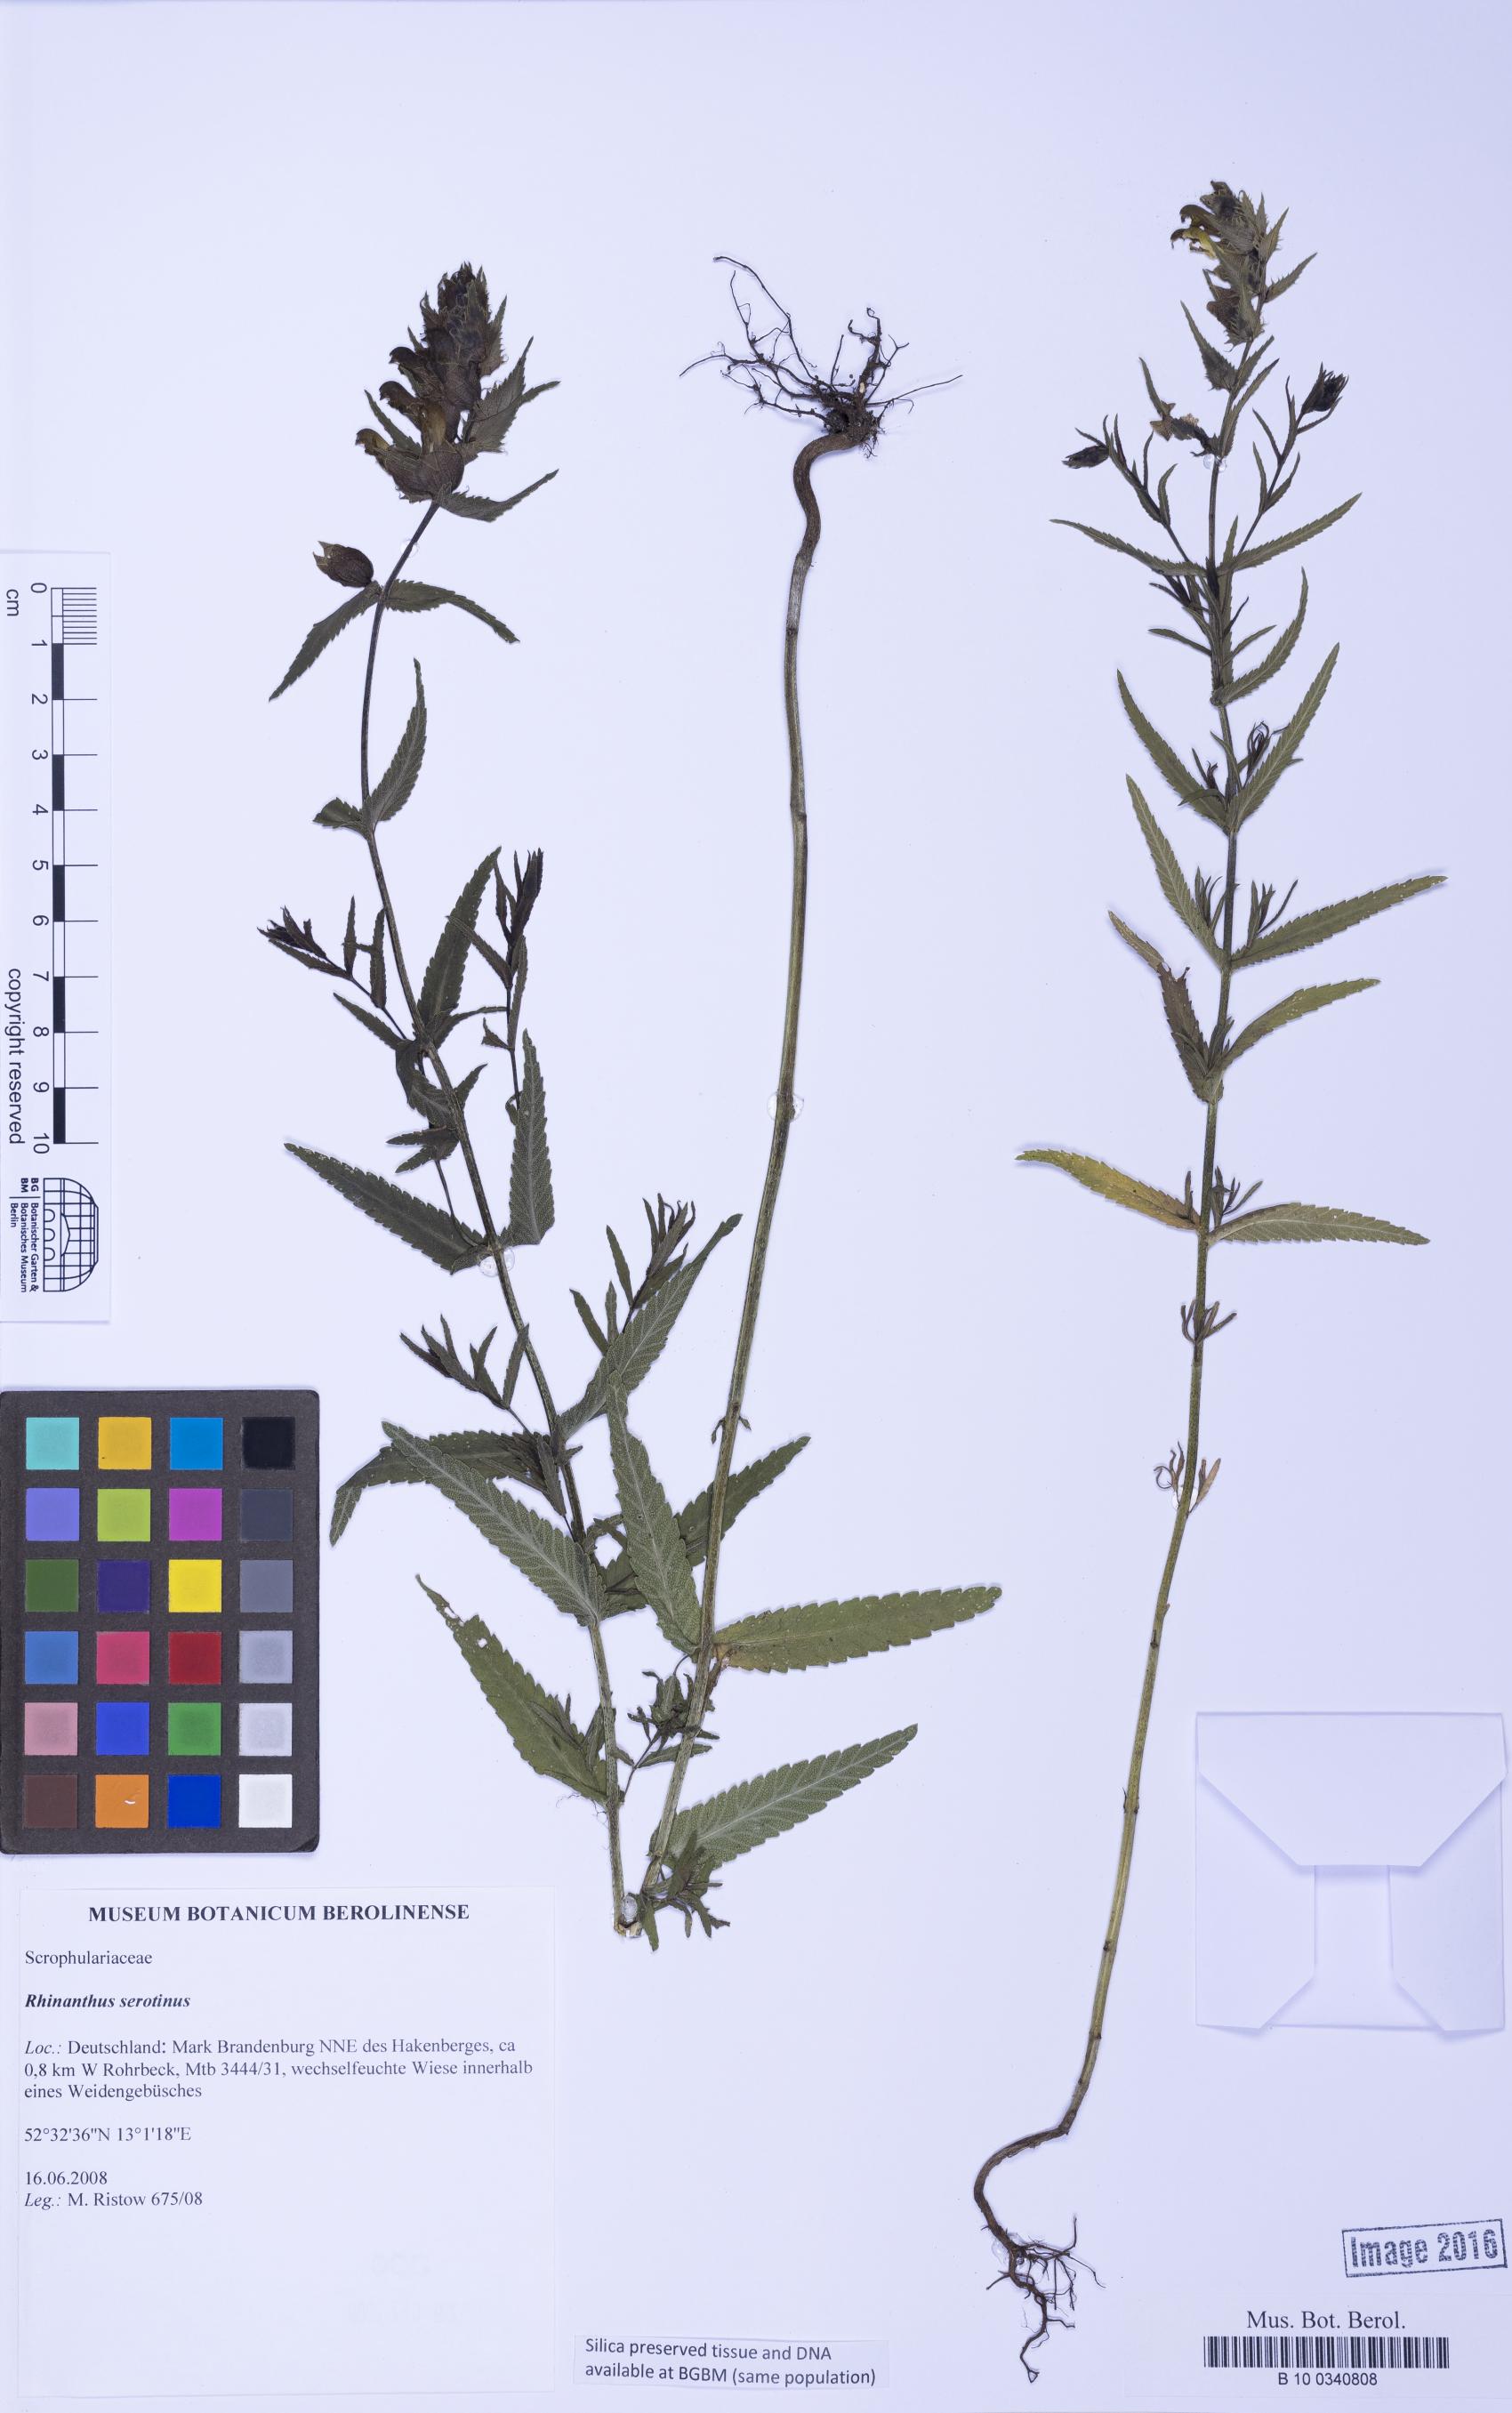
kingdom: Plantae
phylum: Tracheophyta
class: Magnoliopsida
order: Lamiales
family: Orobanchaceae
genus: Rhinanthus
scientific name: Rhinanthus serotinus
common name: Late-flowering yellow rattle
